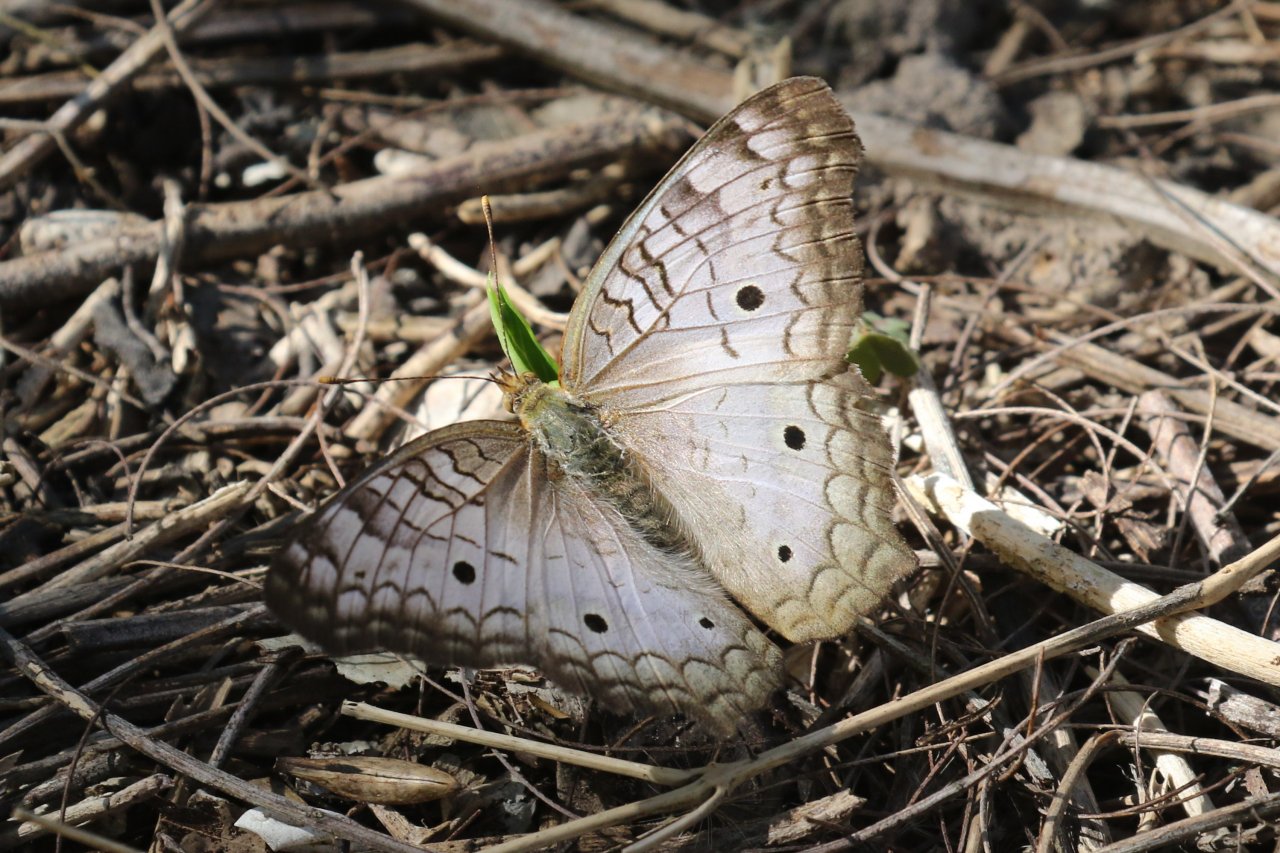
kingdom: Animalia
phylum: Arthropoda
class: Insecta
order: Lepidoptera
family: Nymphalidae
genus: Anartia
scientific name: Anartia jatrophae
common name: White Peacock
